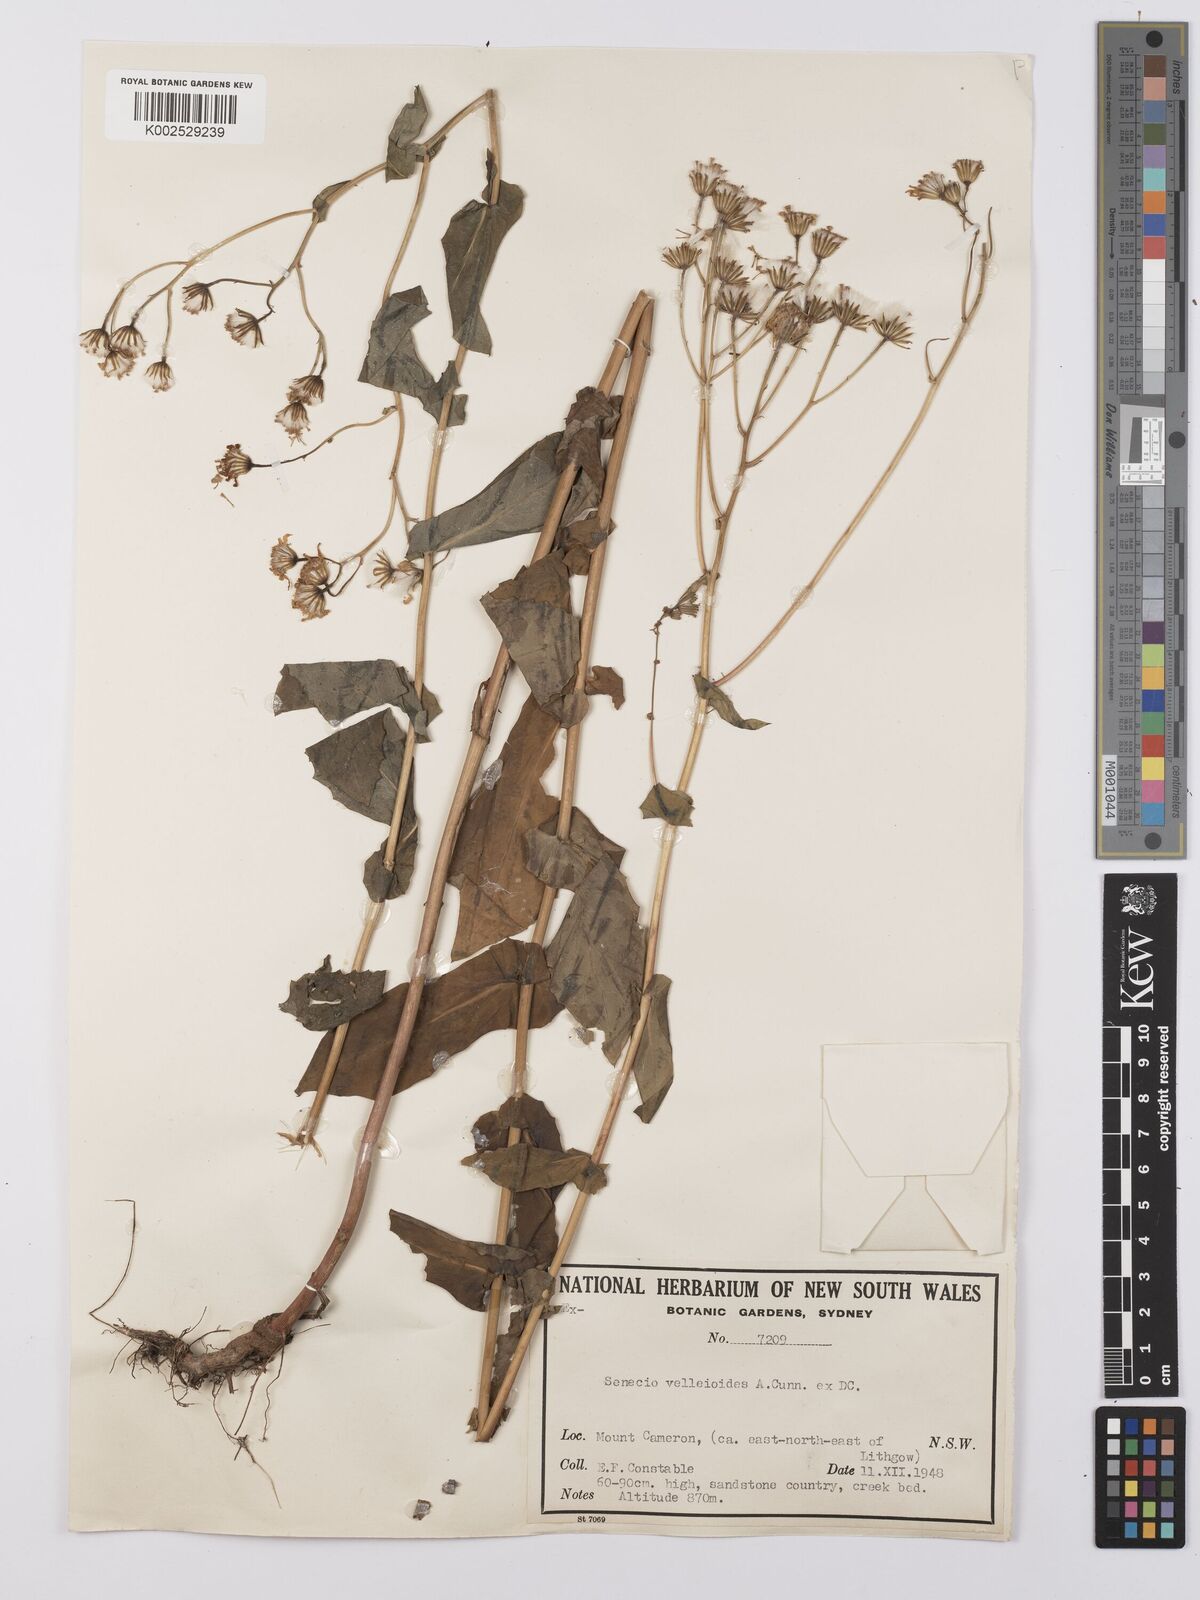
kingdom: Plantae
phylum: Tracheophyta
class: Magnoliopsida
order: Asterales
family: Asteraceae
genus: Lordhowea
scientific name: Lordhowea velleioides
